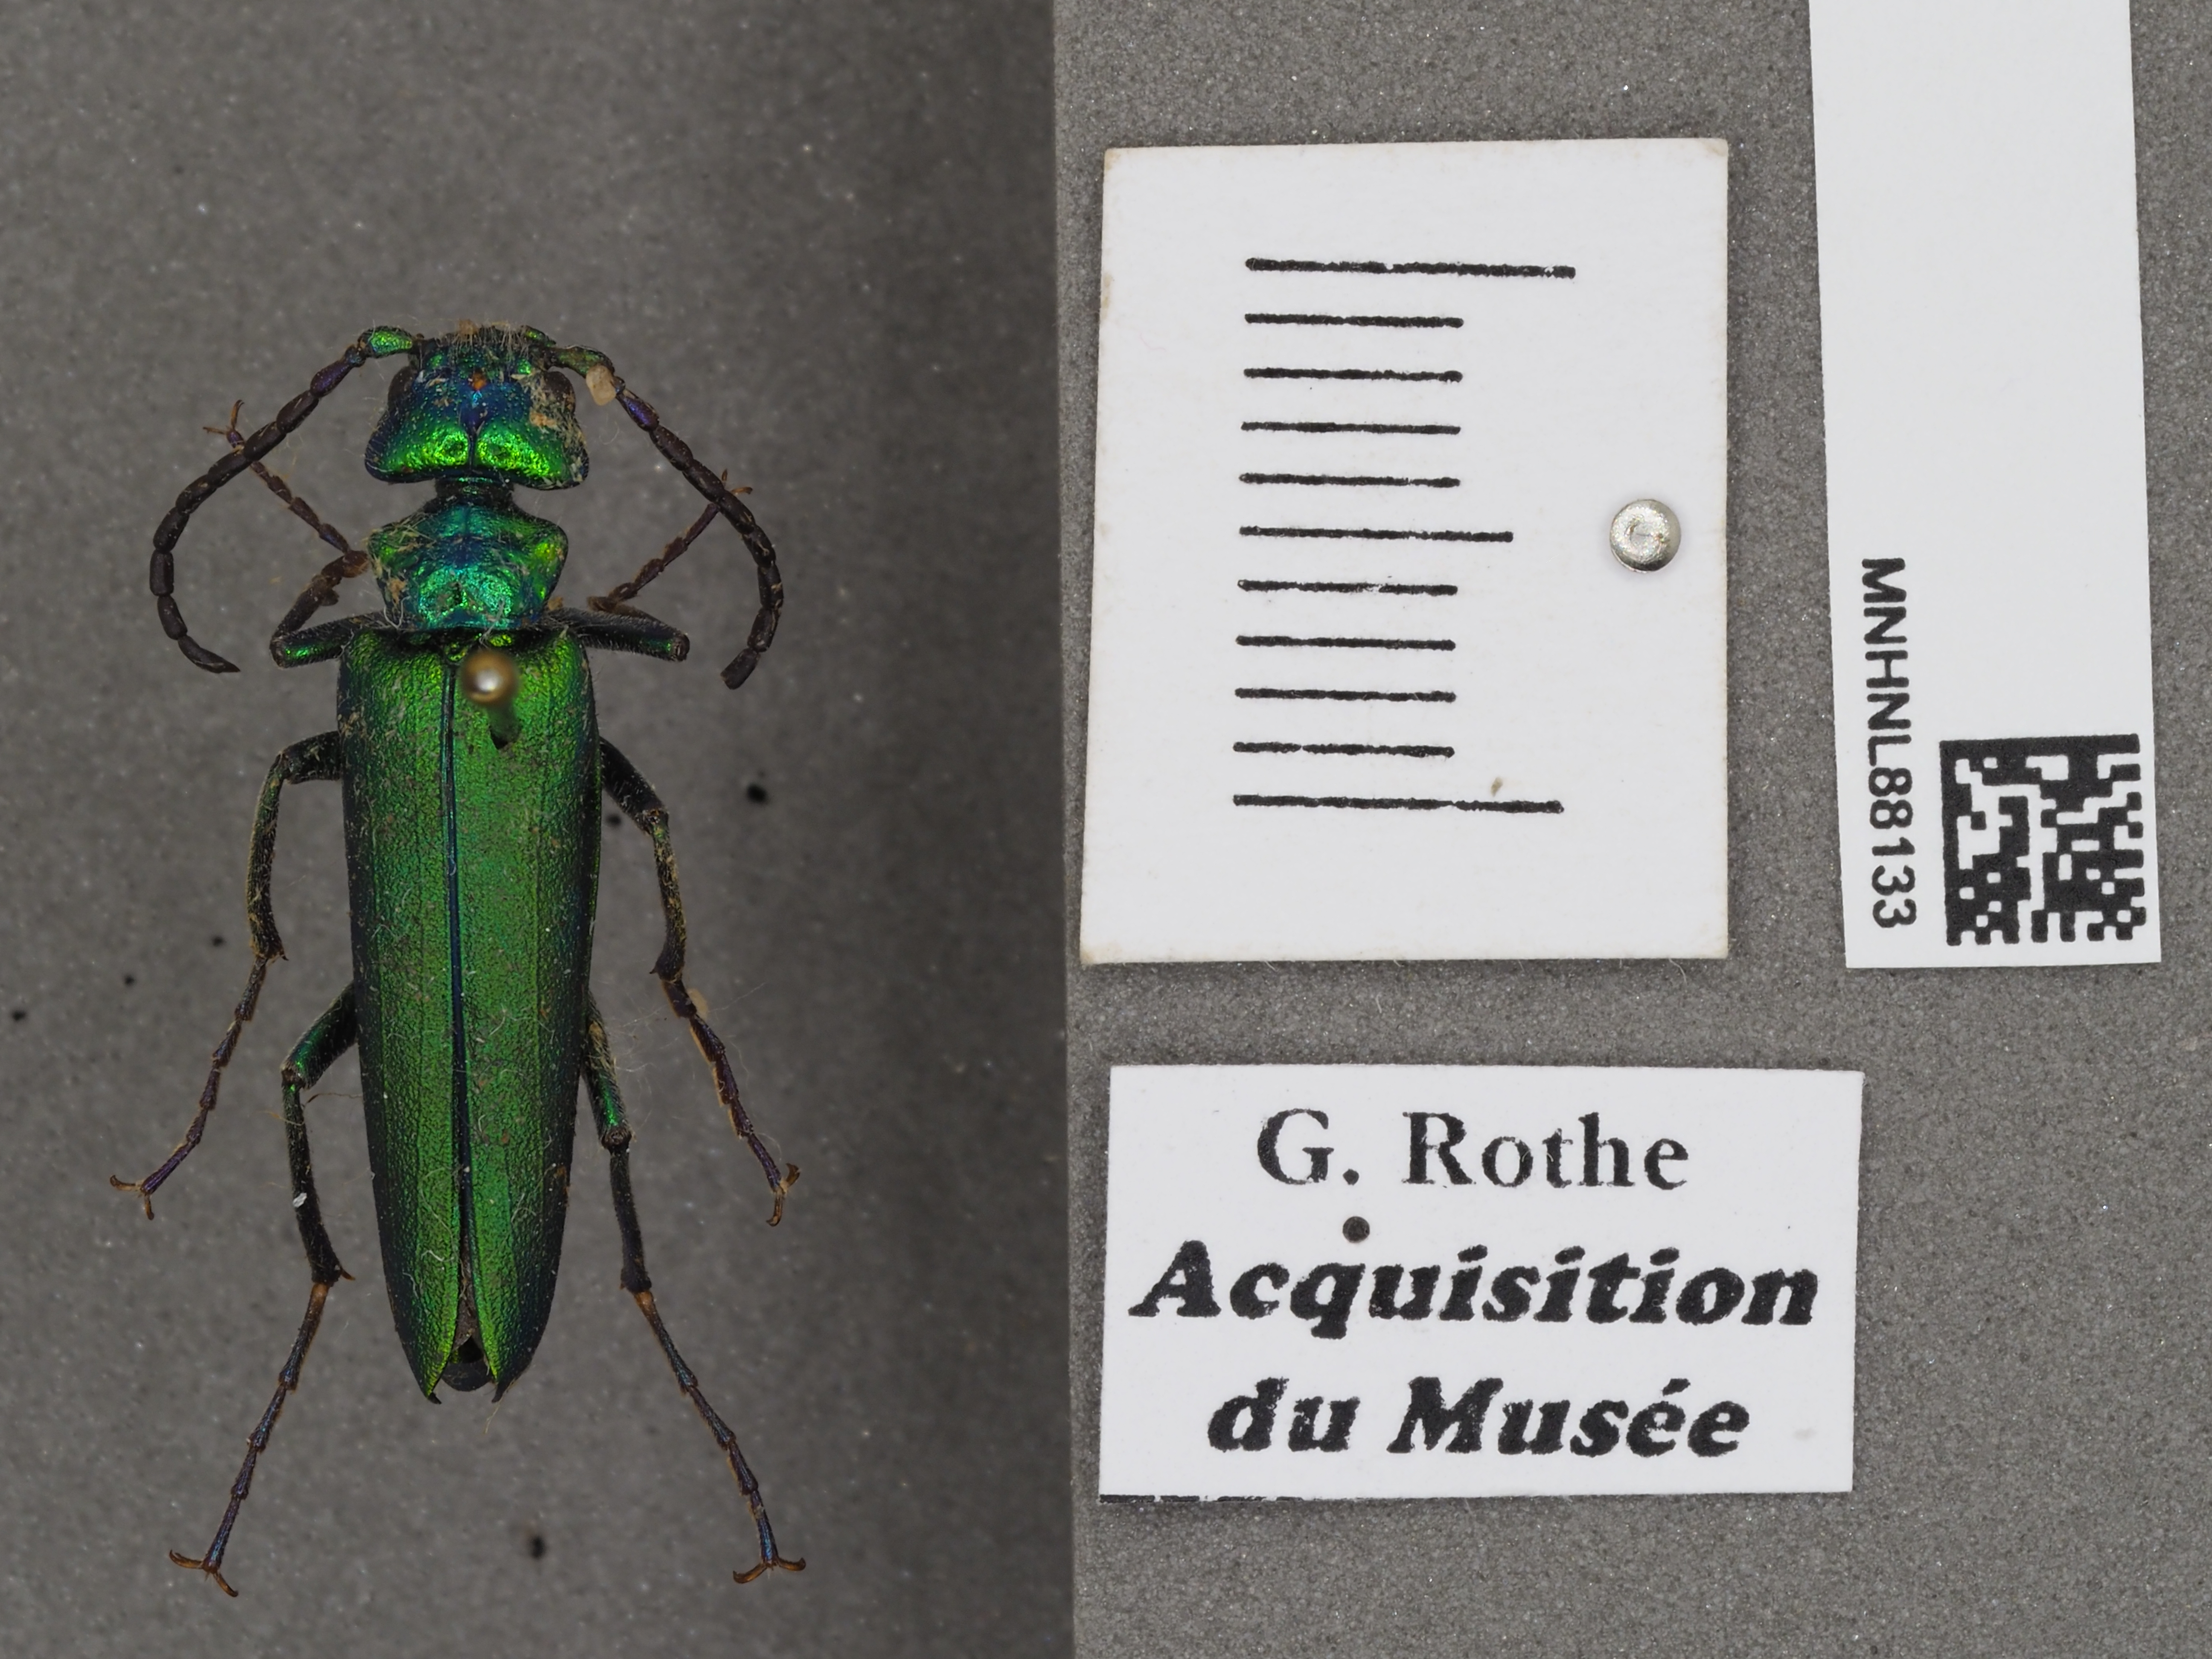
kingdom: Animalia
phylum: Arthropoda
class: Insecta
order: Coleoptera
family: Meloidae
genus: Lytta
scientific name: Lytta vesicatoria
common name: Spanish fly
